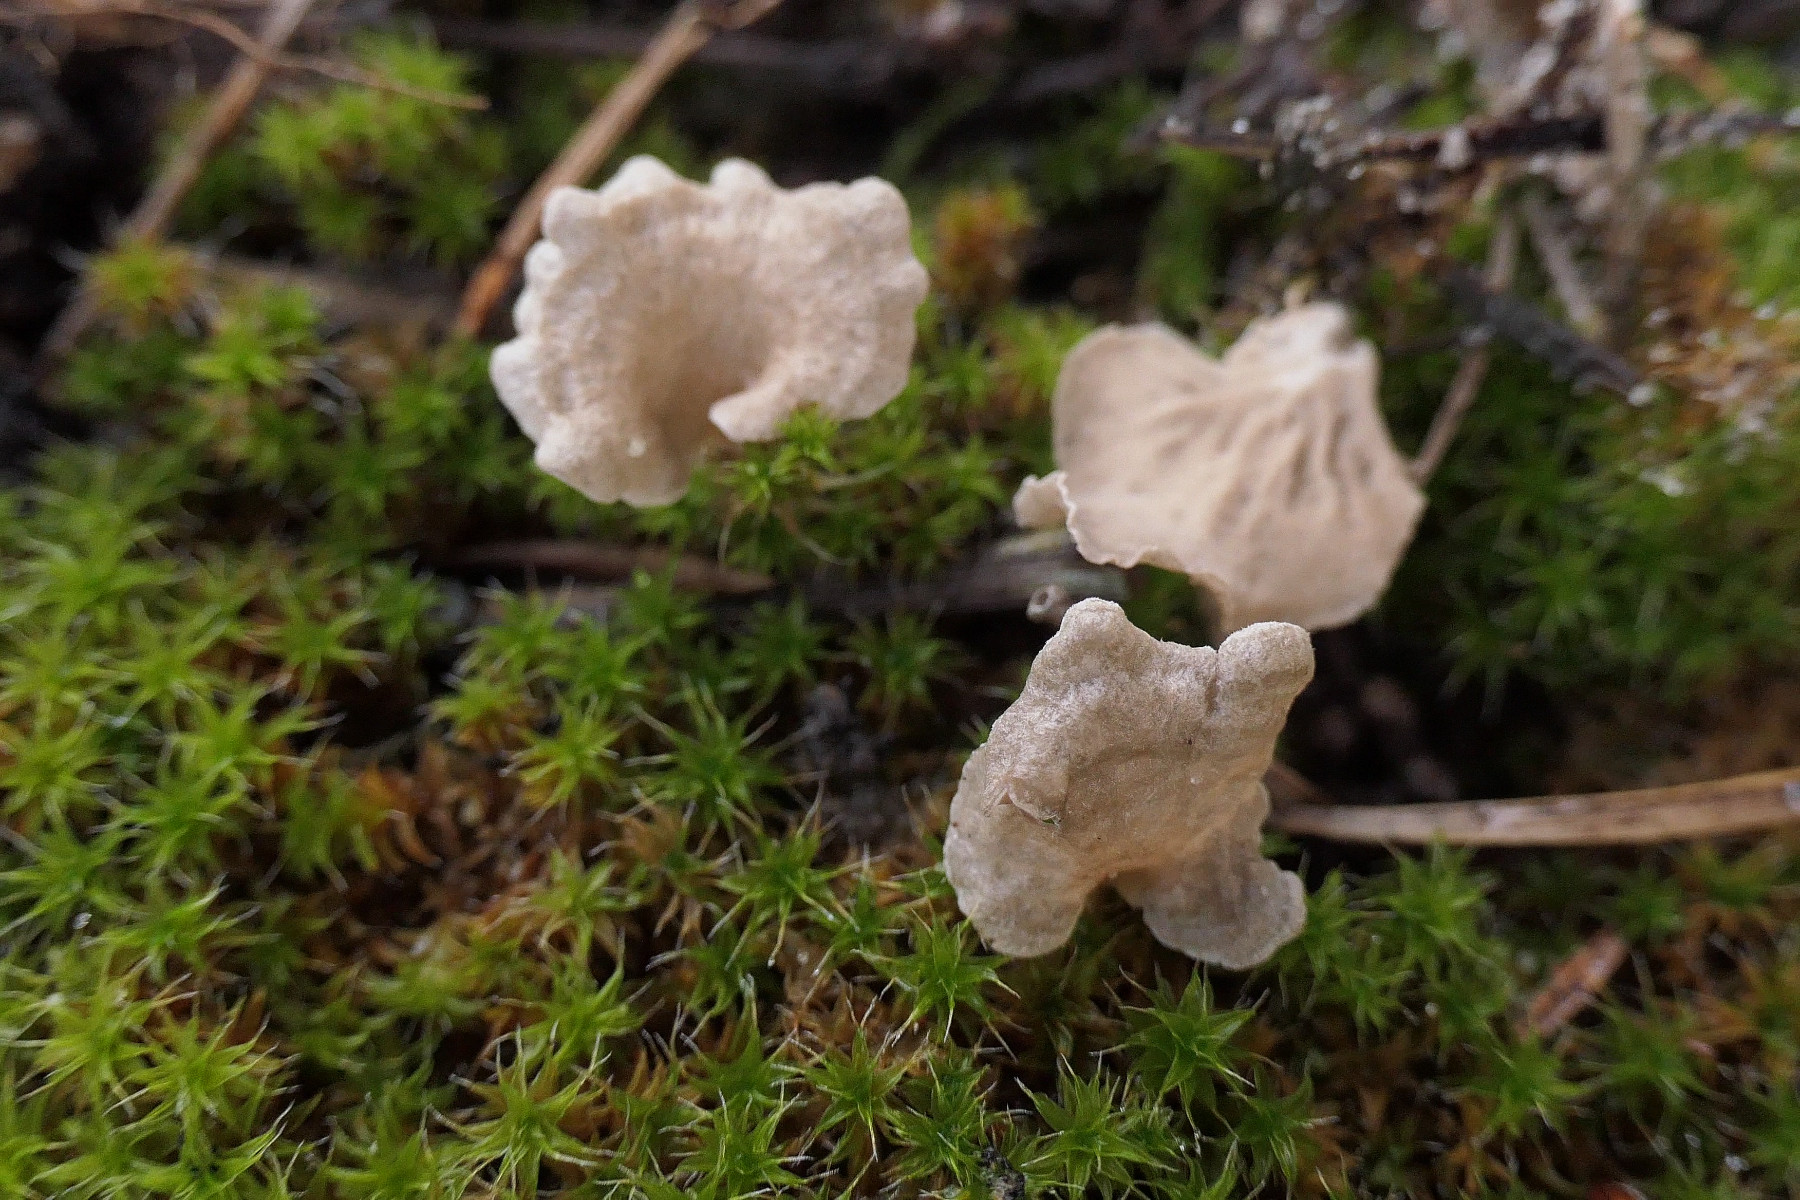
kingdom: Fungi
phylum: Basidiomycota
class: Agaricomycetes
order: Agaricales
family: Hygrophoraceae
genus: Arrhenia
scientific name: Arrhenia spathulata
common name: skæv fontænehat
